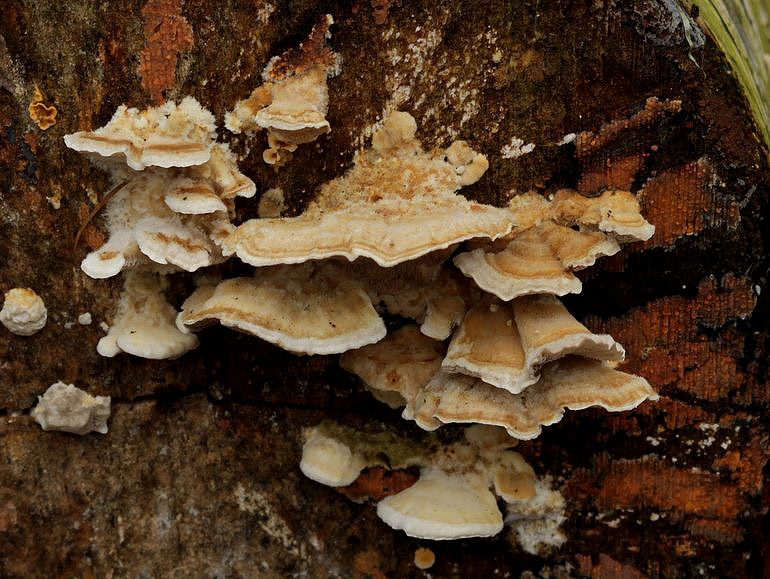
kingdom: Fungi
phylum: Basidiomycota
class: Agaricomycetes
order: Polyporales
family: Polyporaceae
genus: Trametes
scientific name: Trametes ochracea
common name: bæltet læderporesvamp
